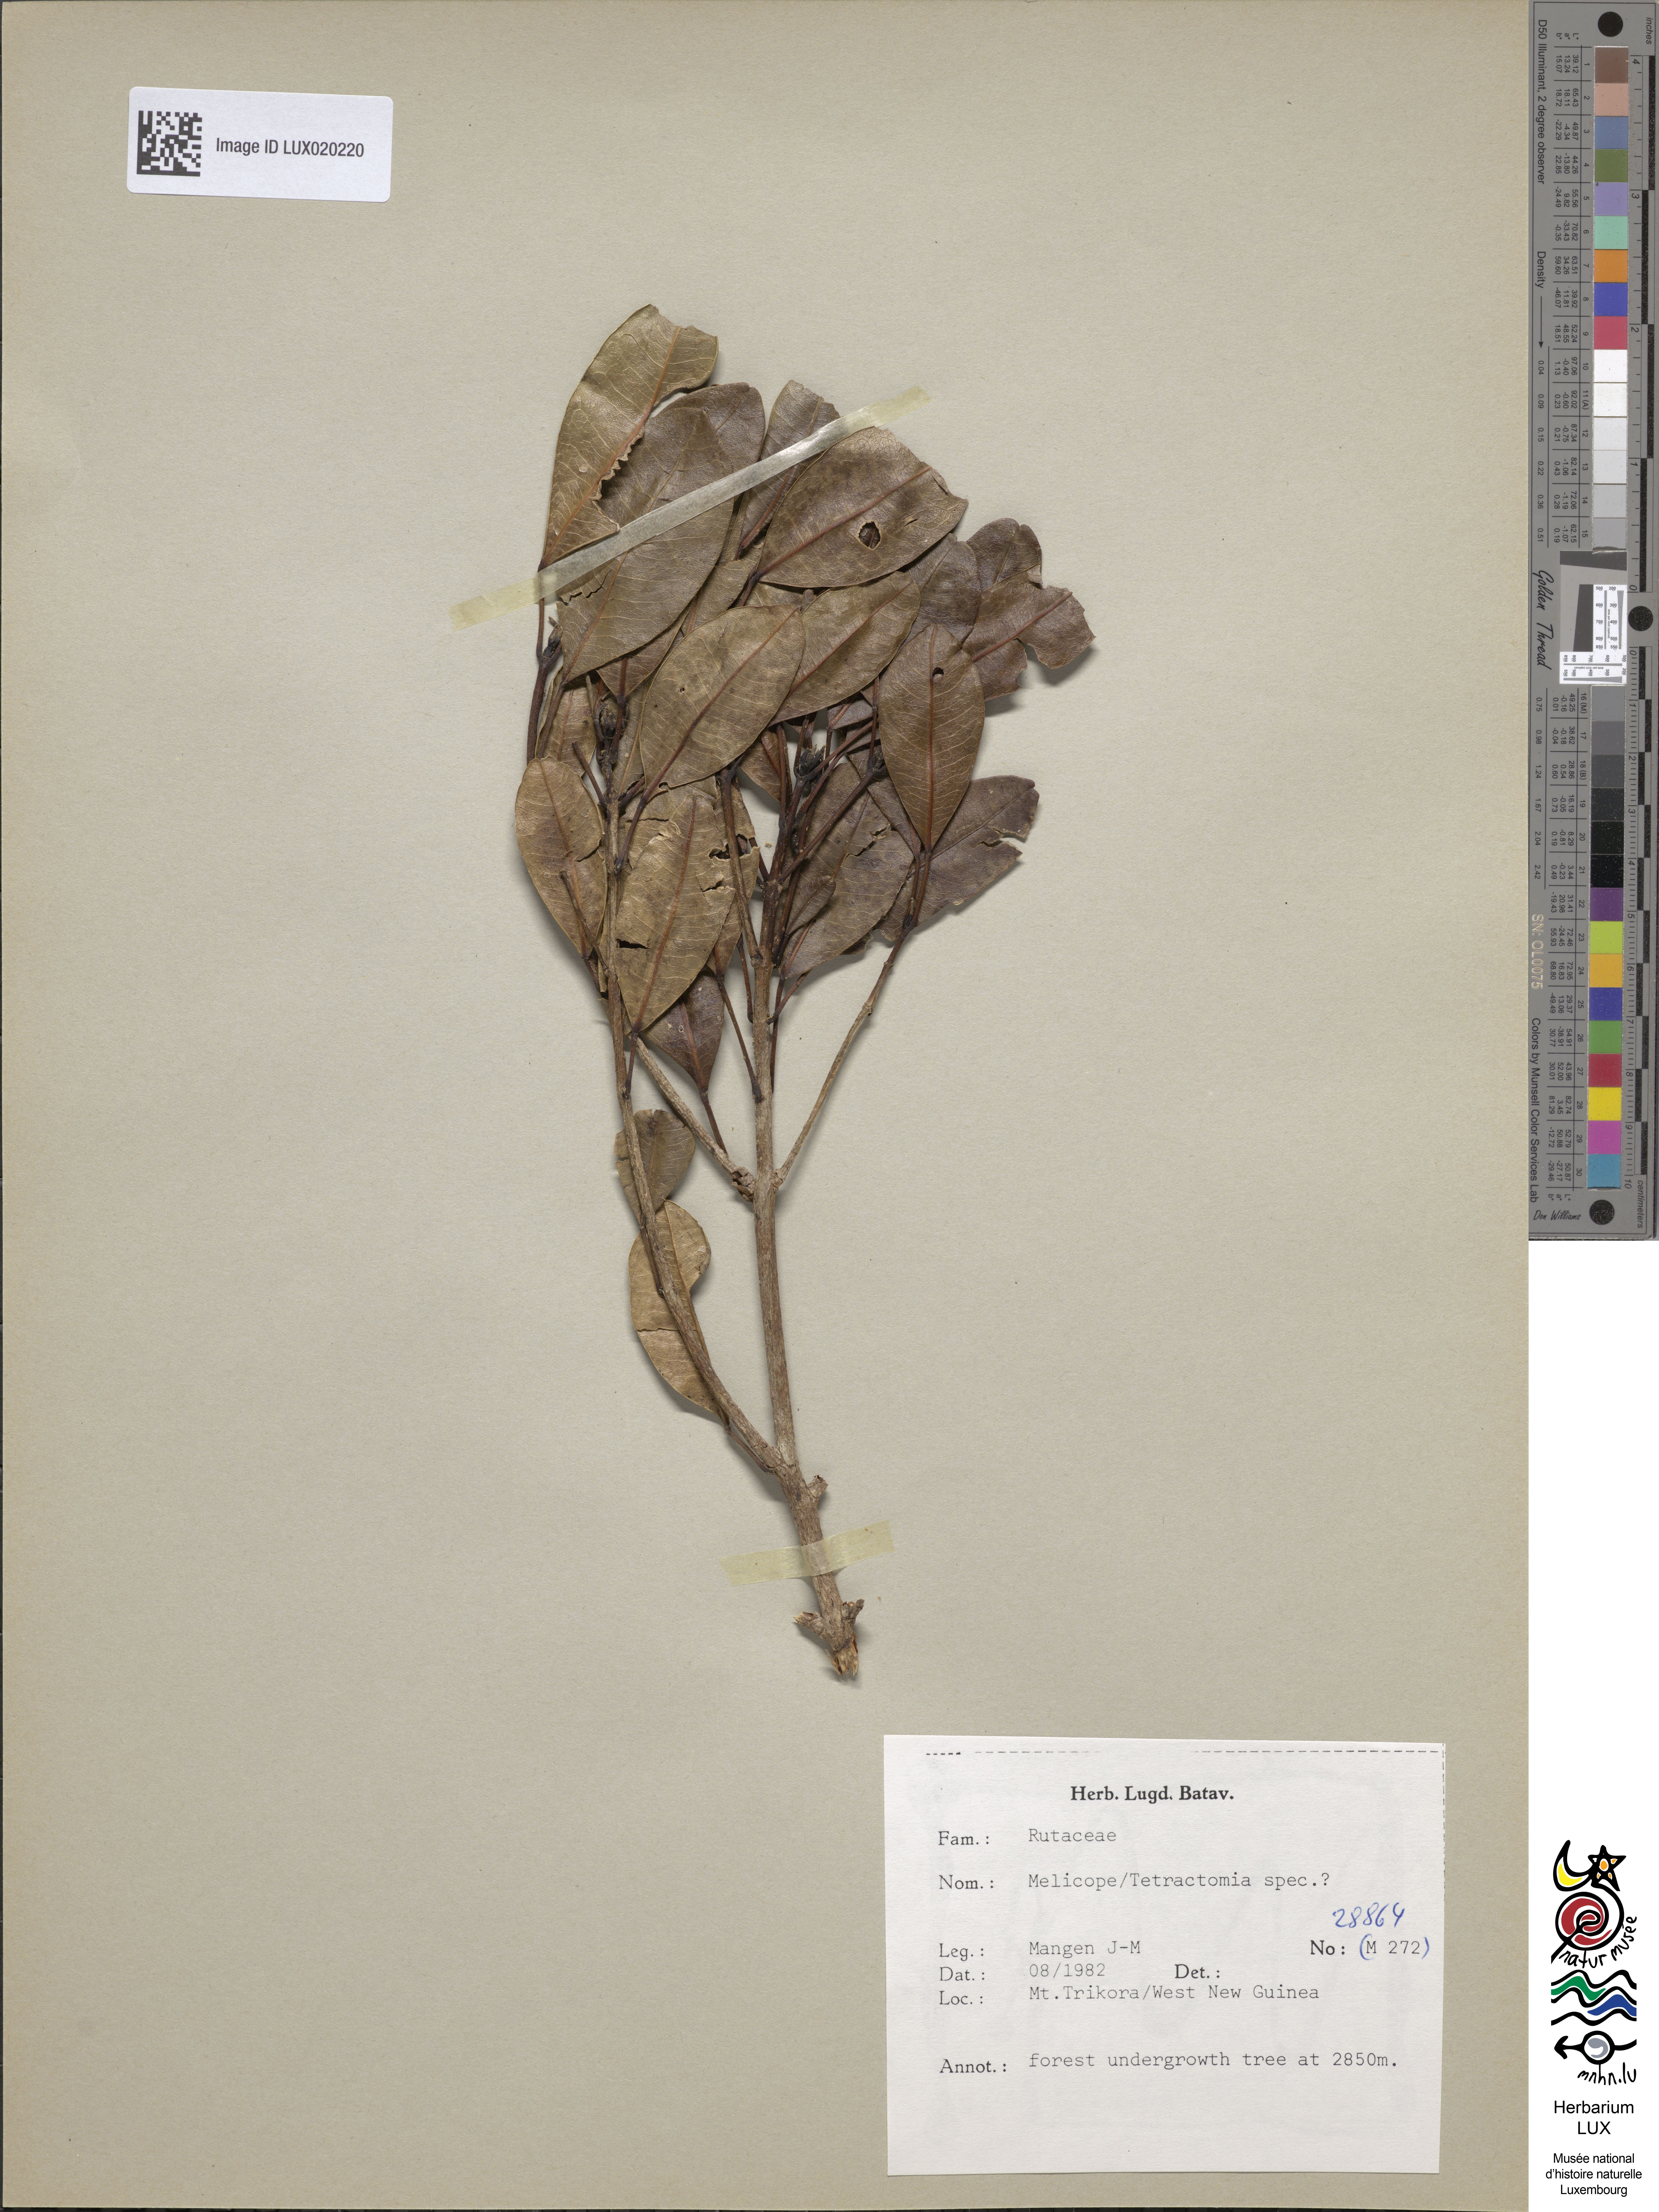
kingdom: Plantae
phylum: Tracheophyta
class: Magnoliopsida
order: Sapindales
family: Rutaceae
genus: Melicope
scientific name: Melicope
